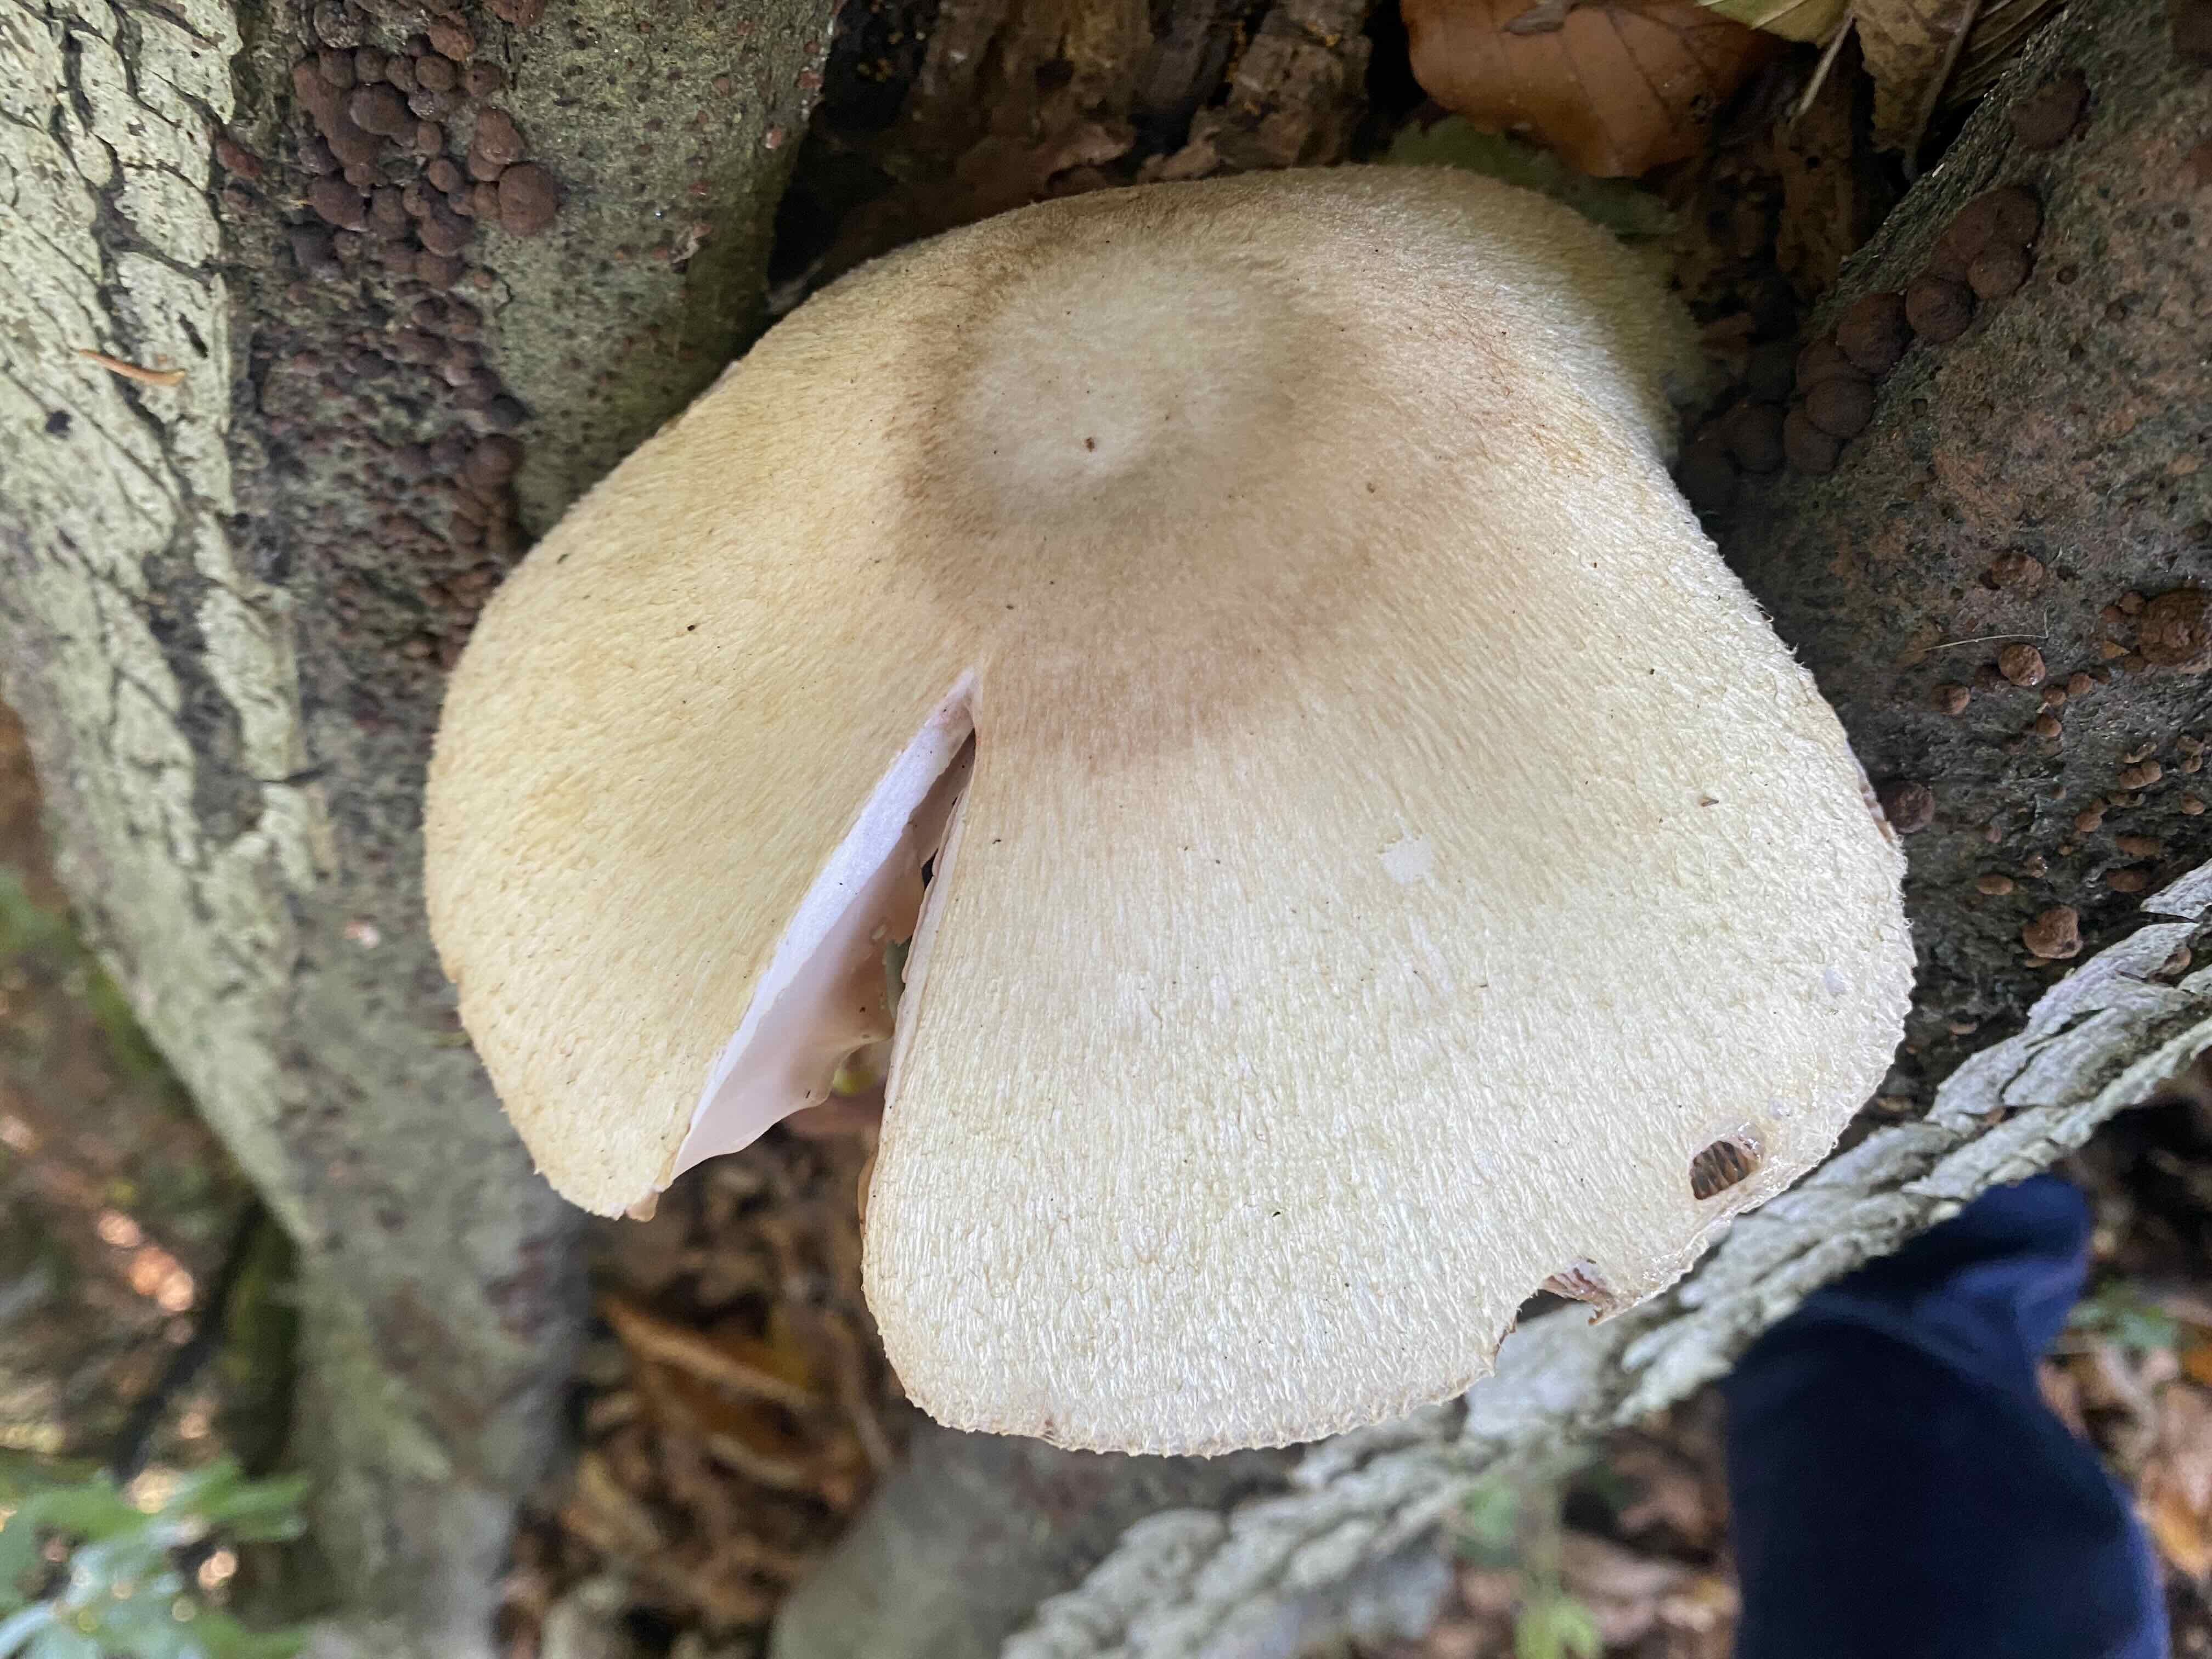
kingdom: Fungi
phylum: Basidiomycota
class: Agaricomycetes
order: Agaricales
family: Pluteaceae
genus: Volvariella
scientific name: Volvariella bombycina
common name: silkehåret posesvamp
